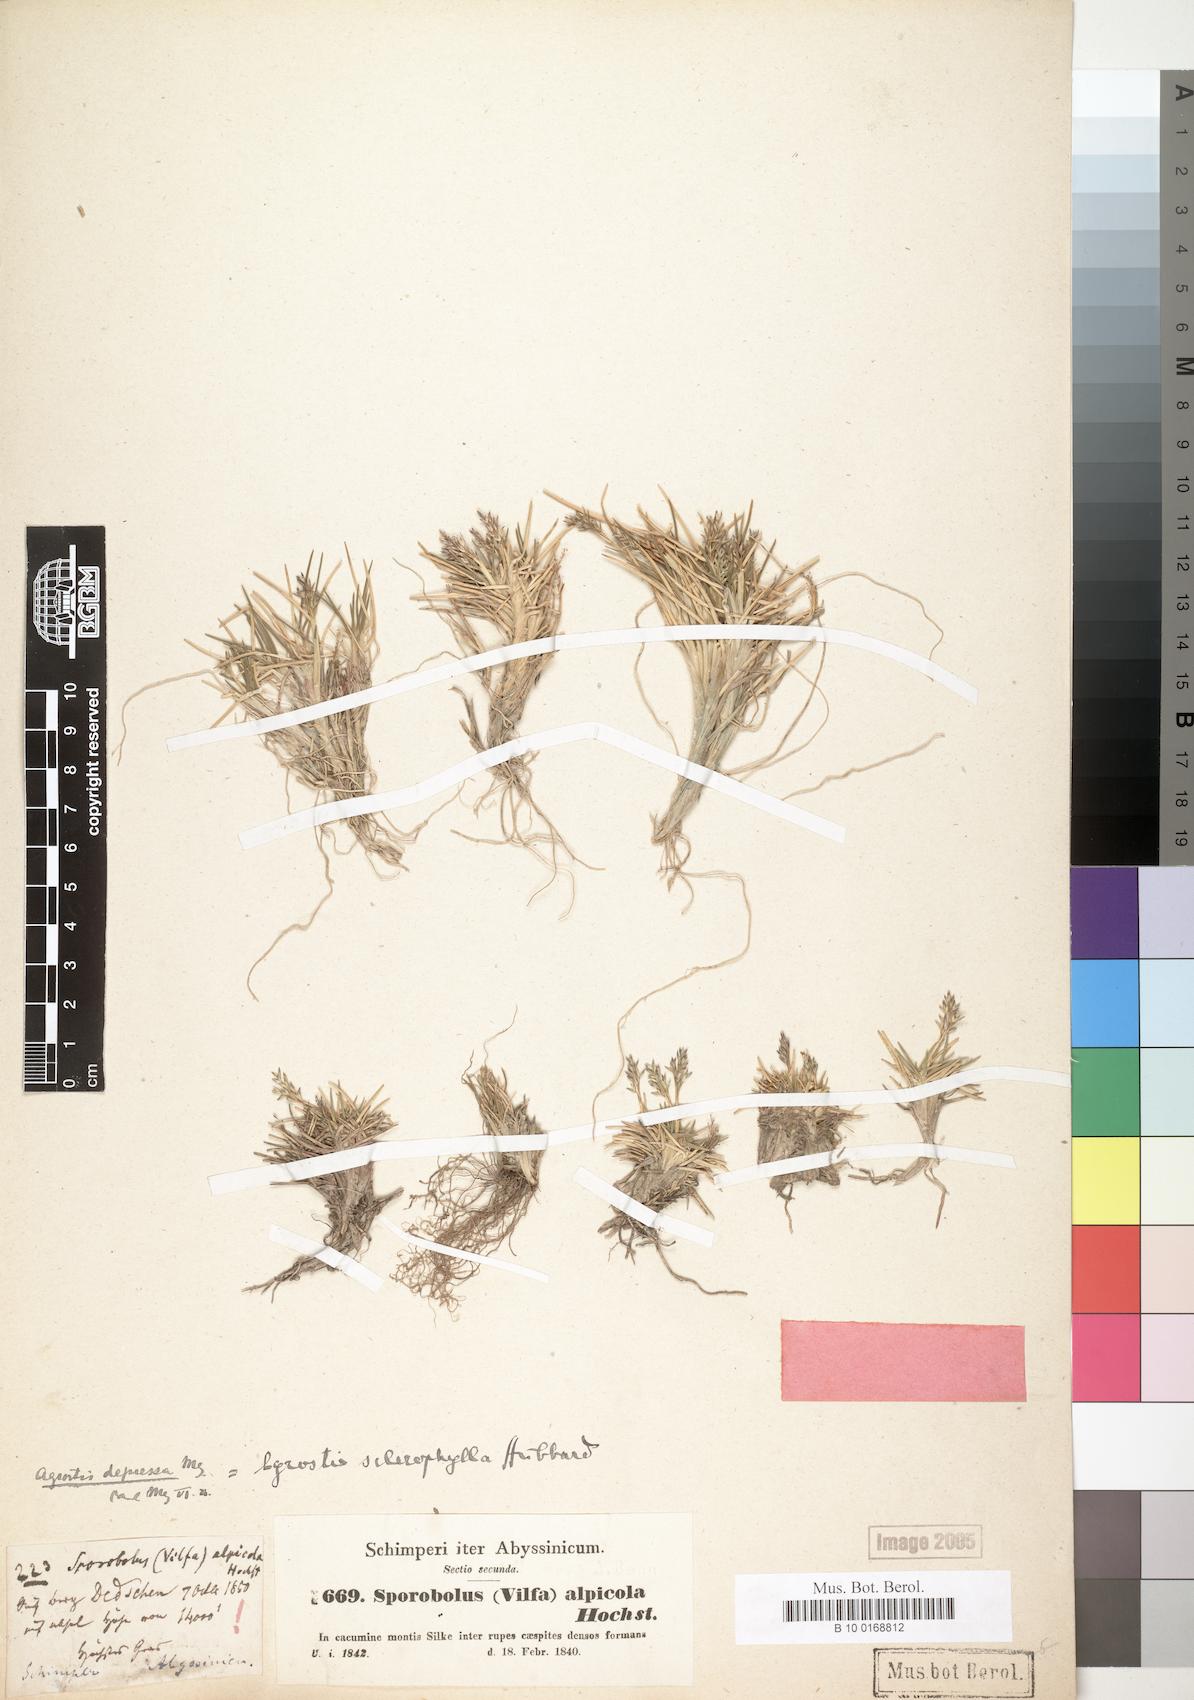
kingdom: Plantae
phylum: Tracheophyta
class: Liliopsida
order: Poales
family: Poaceae
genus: Agrostis
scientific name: Agrostis sclerophylla
